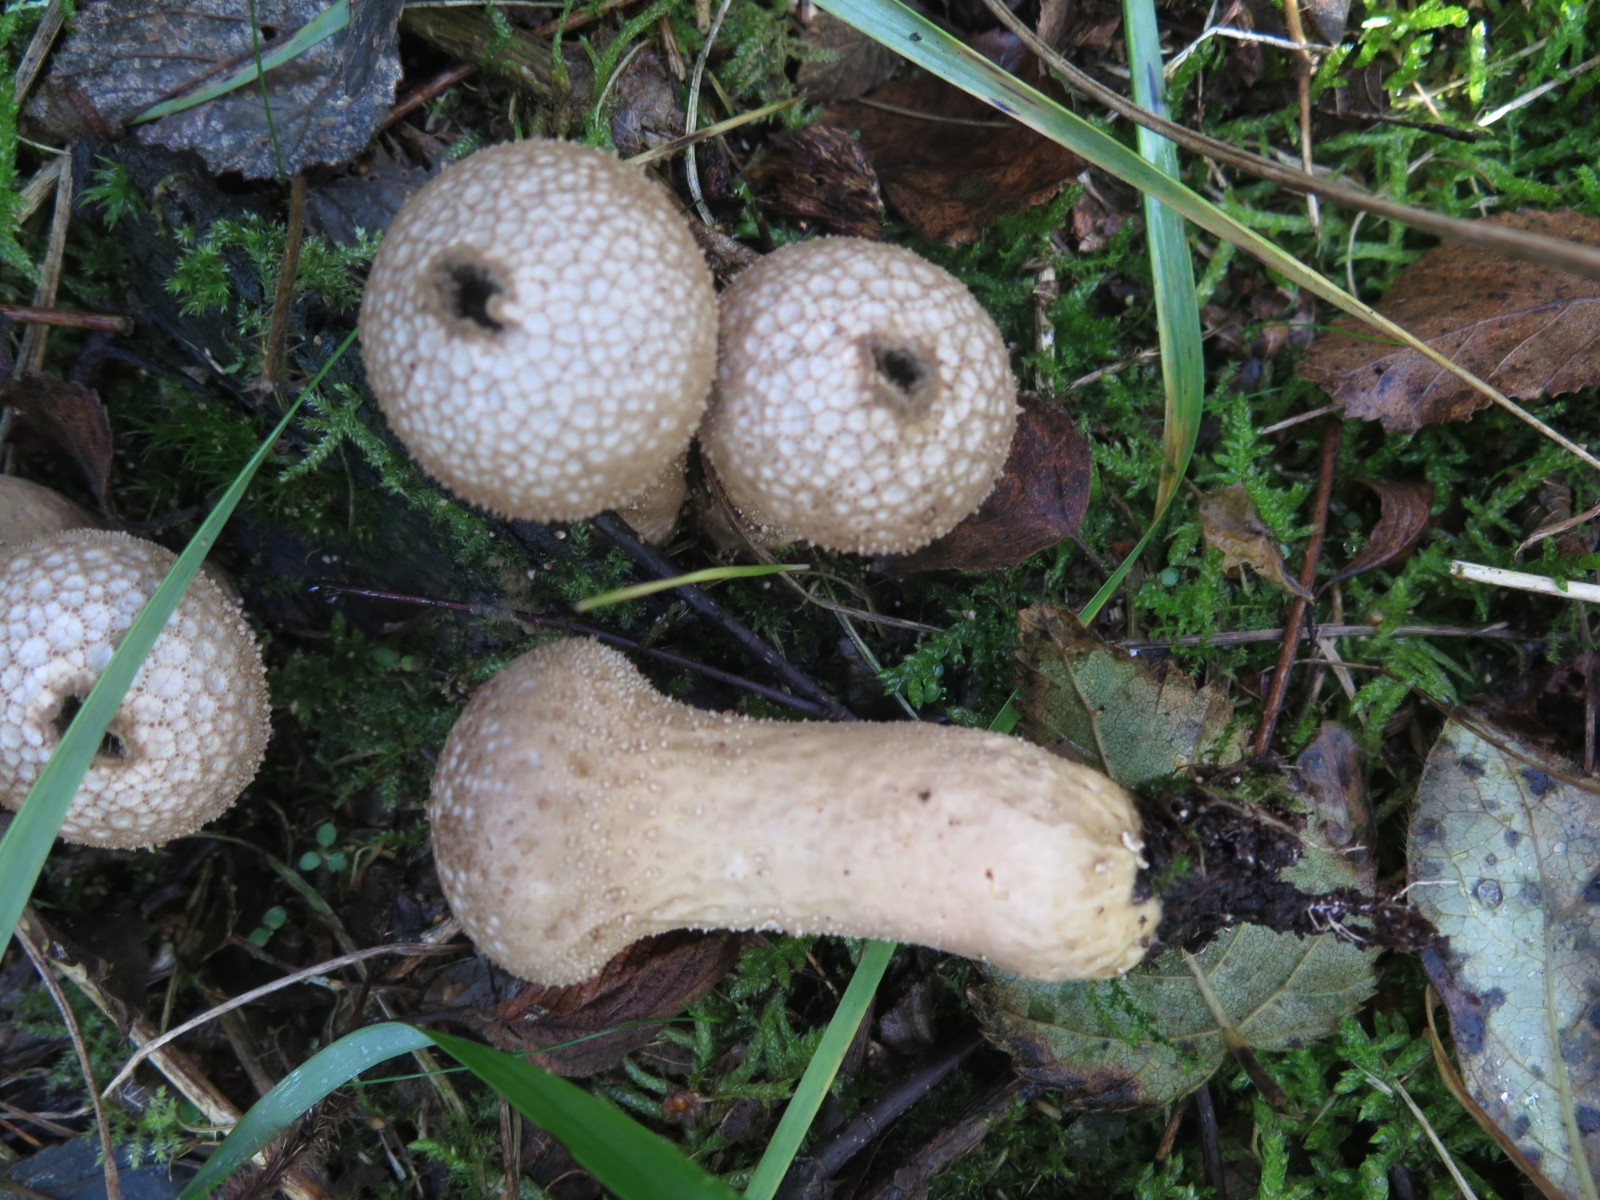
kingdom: Fungi
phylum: Basidiomycota
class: Agaricomycetes
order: Agaricales
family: Lycoperdaceae
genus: Lycoperdon
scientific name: Lycoperdon perlatum
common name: krystal-støvbold
